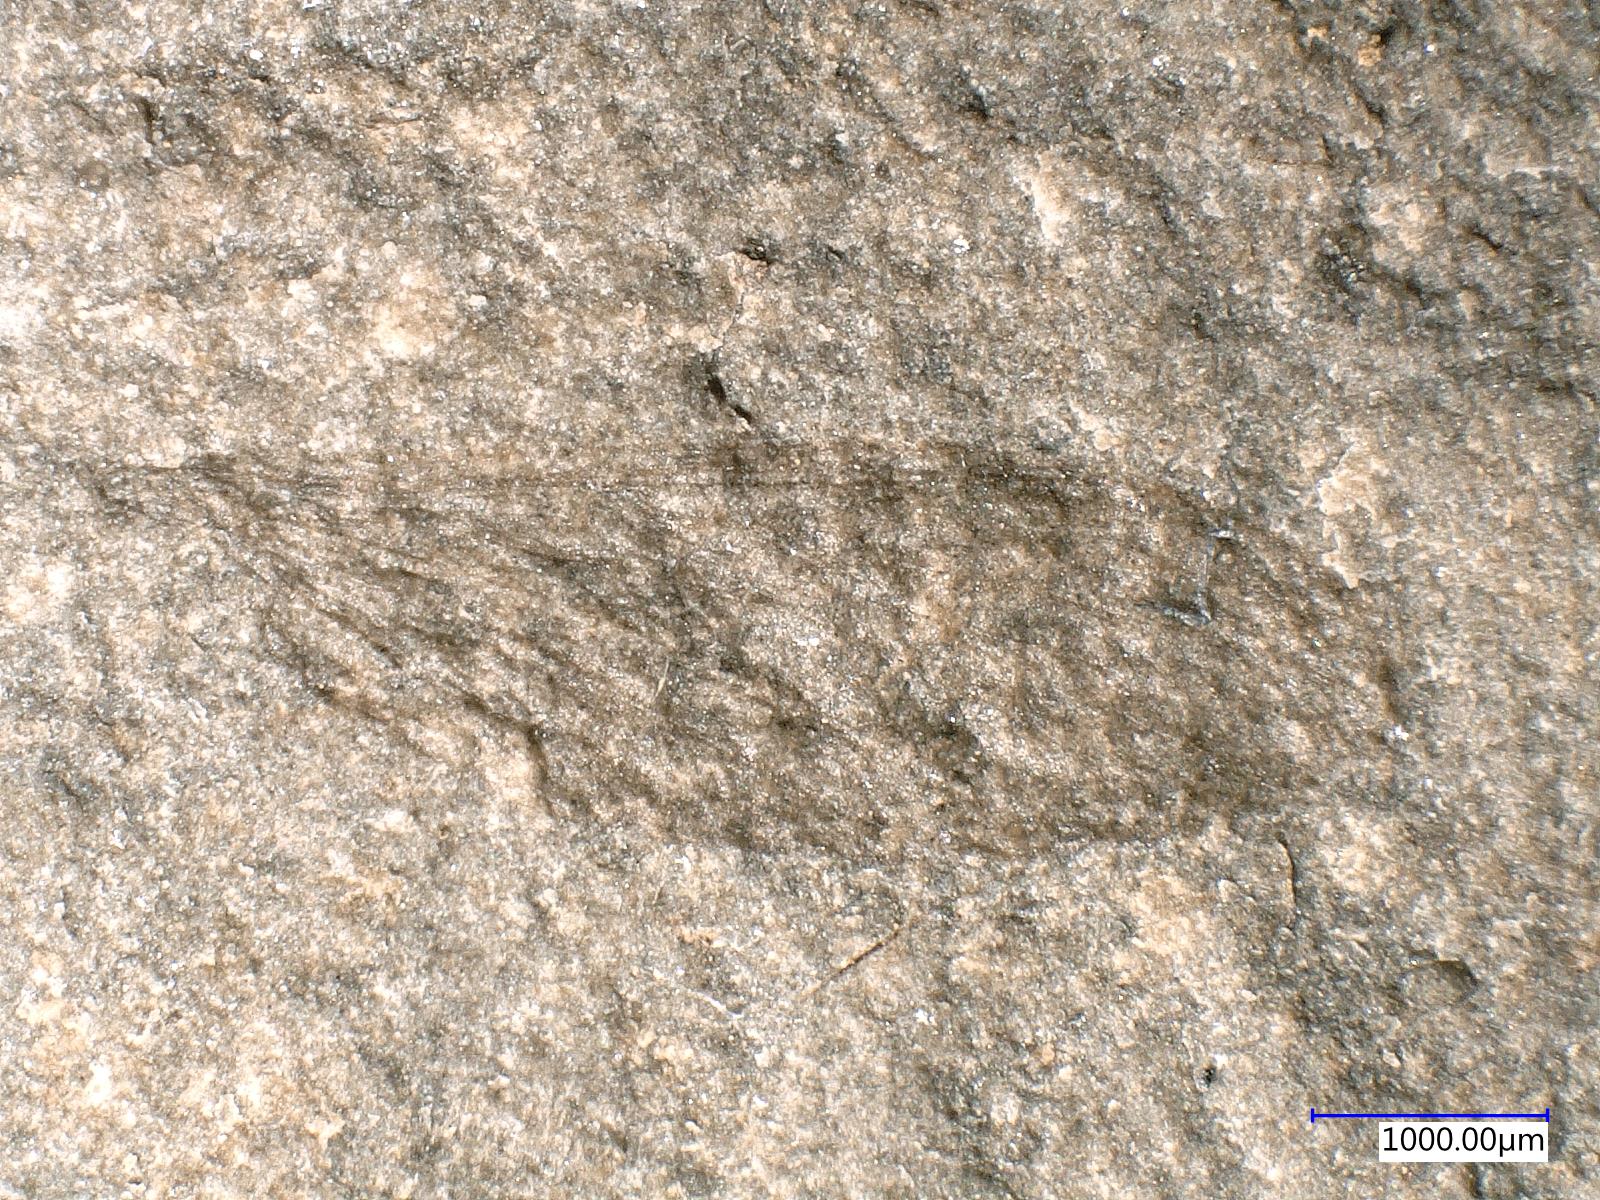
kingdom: Animalia
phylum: Arthropoda
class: Insecta
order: Diptera
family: Limoniidae
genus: Grimmenia
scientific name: Grimmenia
